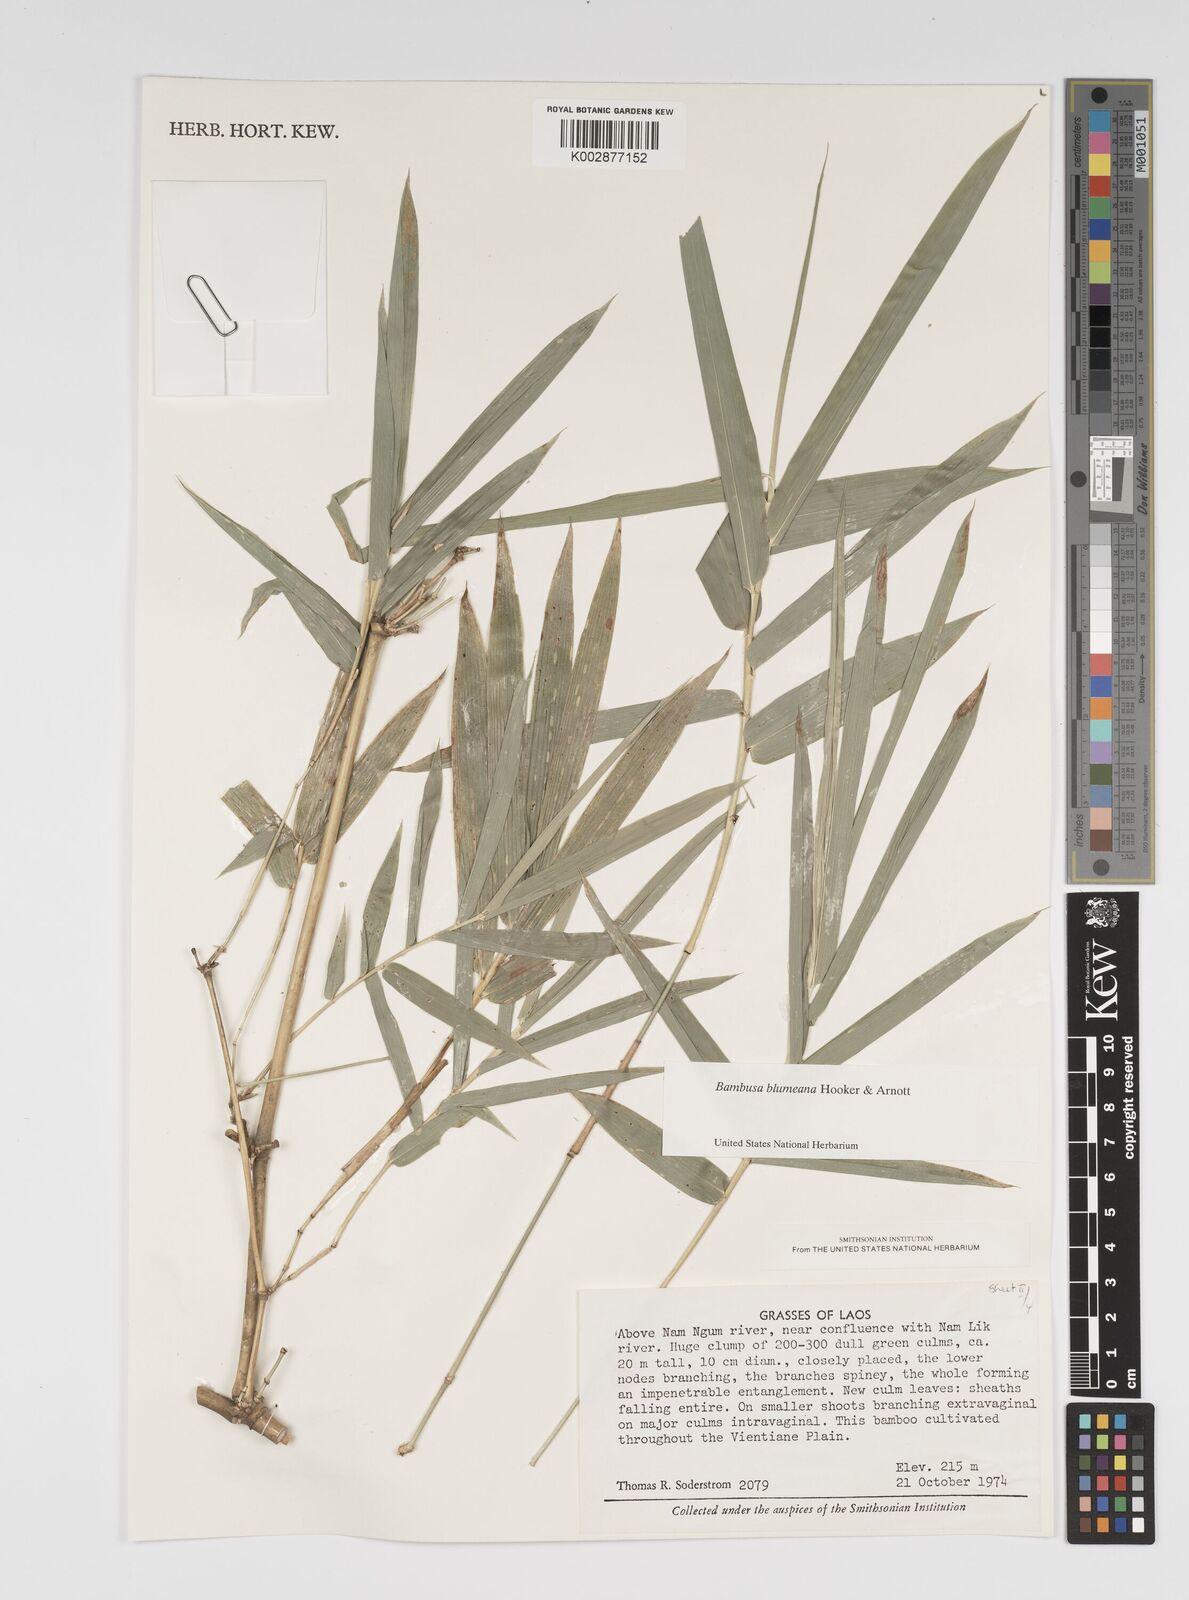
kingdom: Plantae
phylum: Tracheophyta
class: Liliopsida
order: Poales
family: Poaceae
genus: Bambusa
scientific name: Bambusa tuldoides
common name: Verdant bamboo
